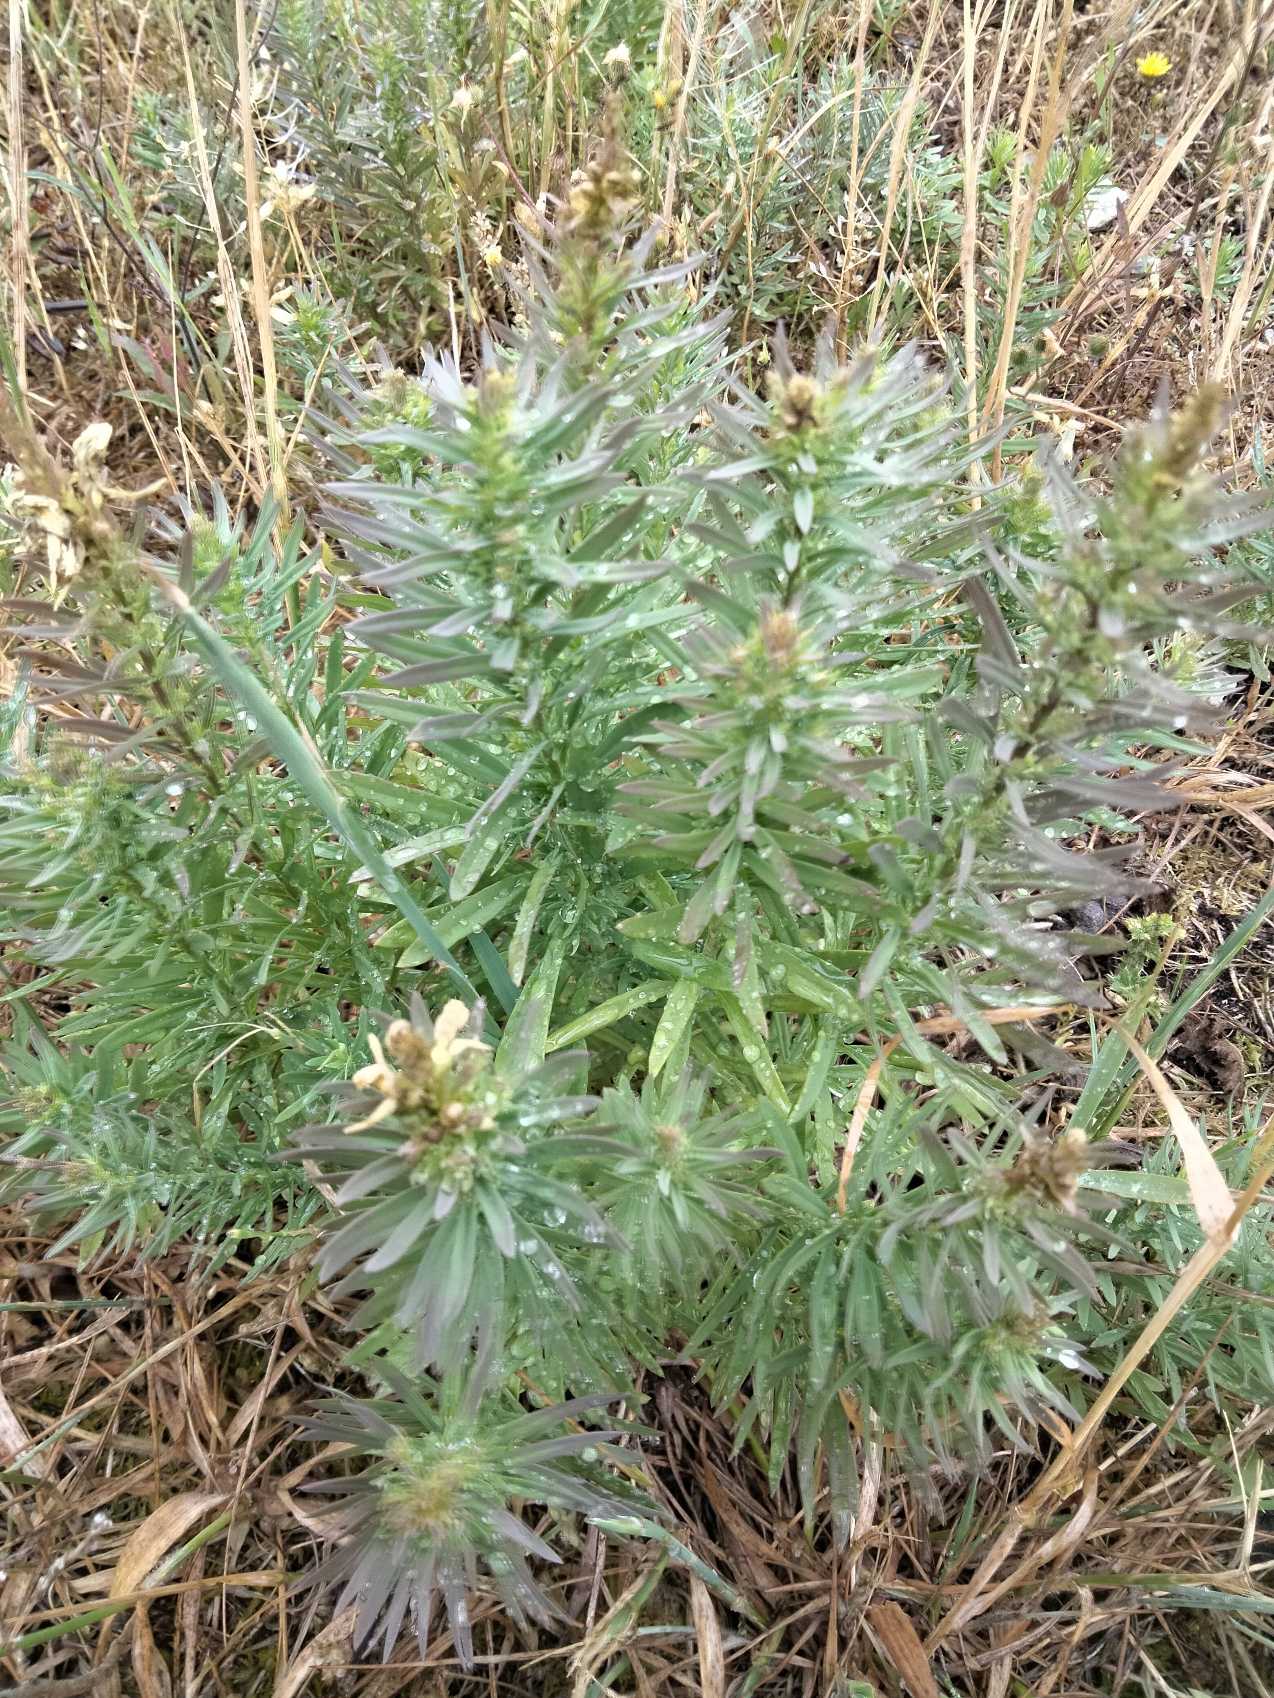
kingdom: Plantae
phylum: Tracheophyta
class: Magnoliopsida
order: Lamiales
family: Plantaginaceae
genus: Linaria
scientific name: Linaria vulgaris
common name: Almindelig torskemund
